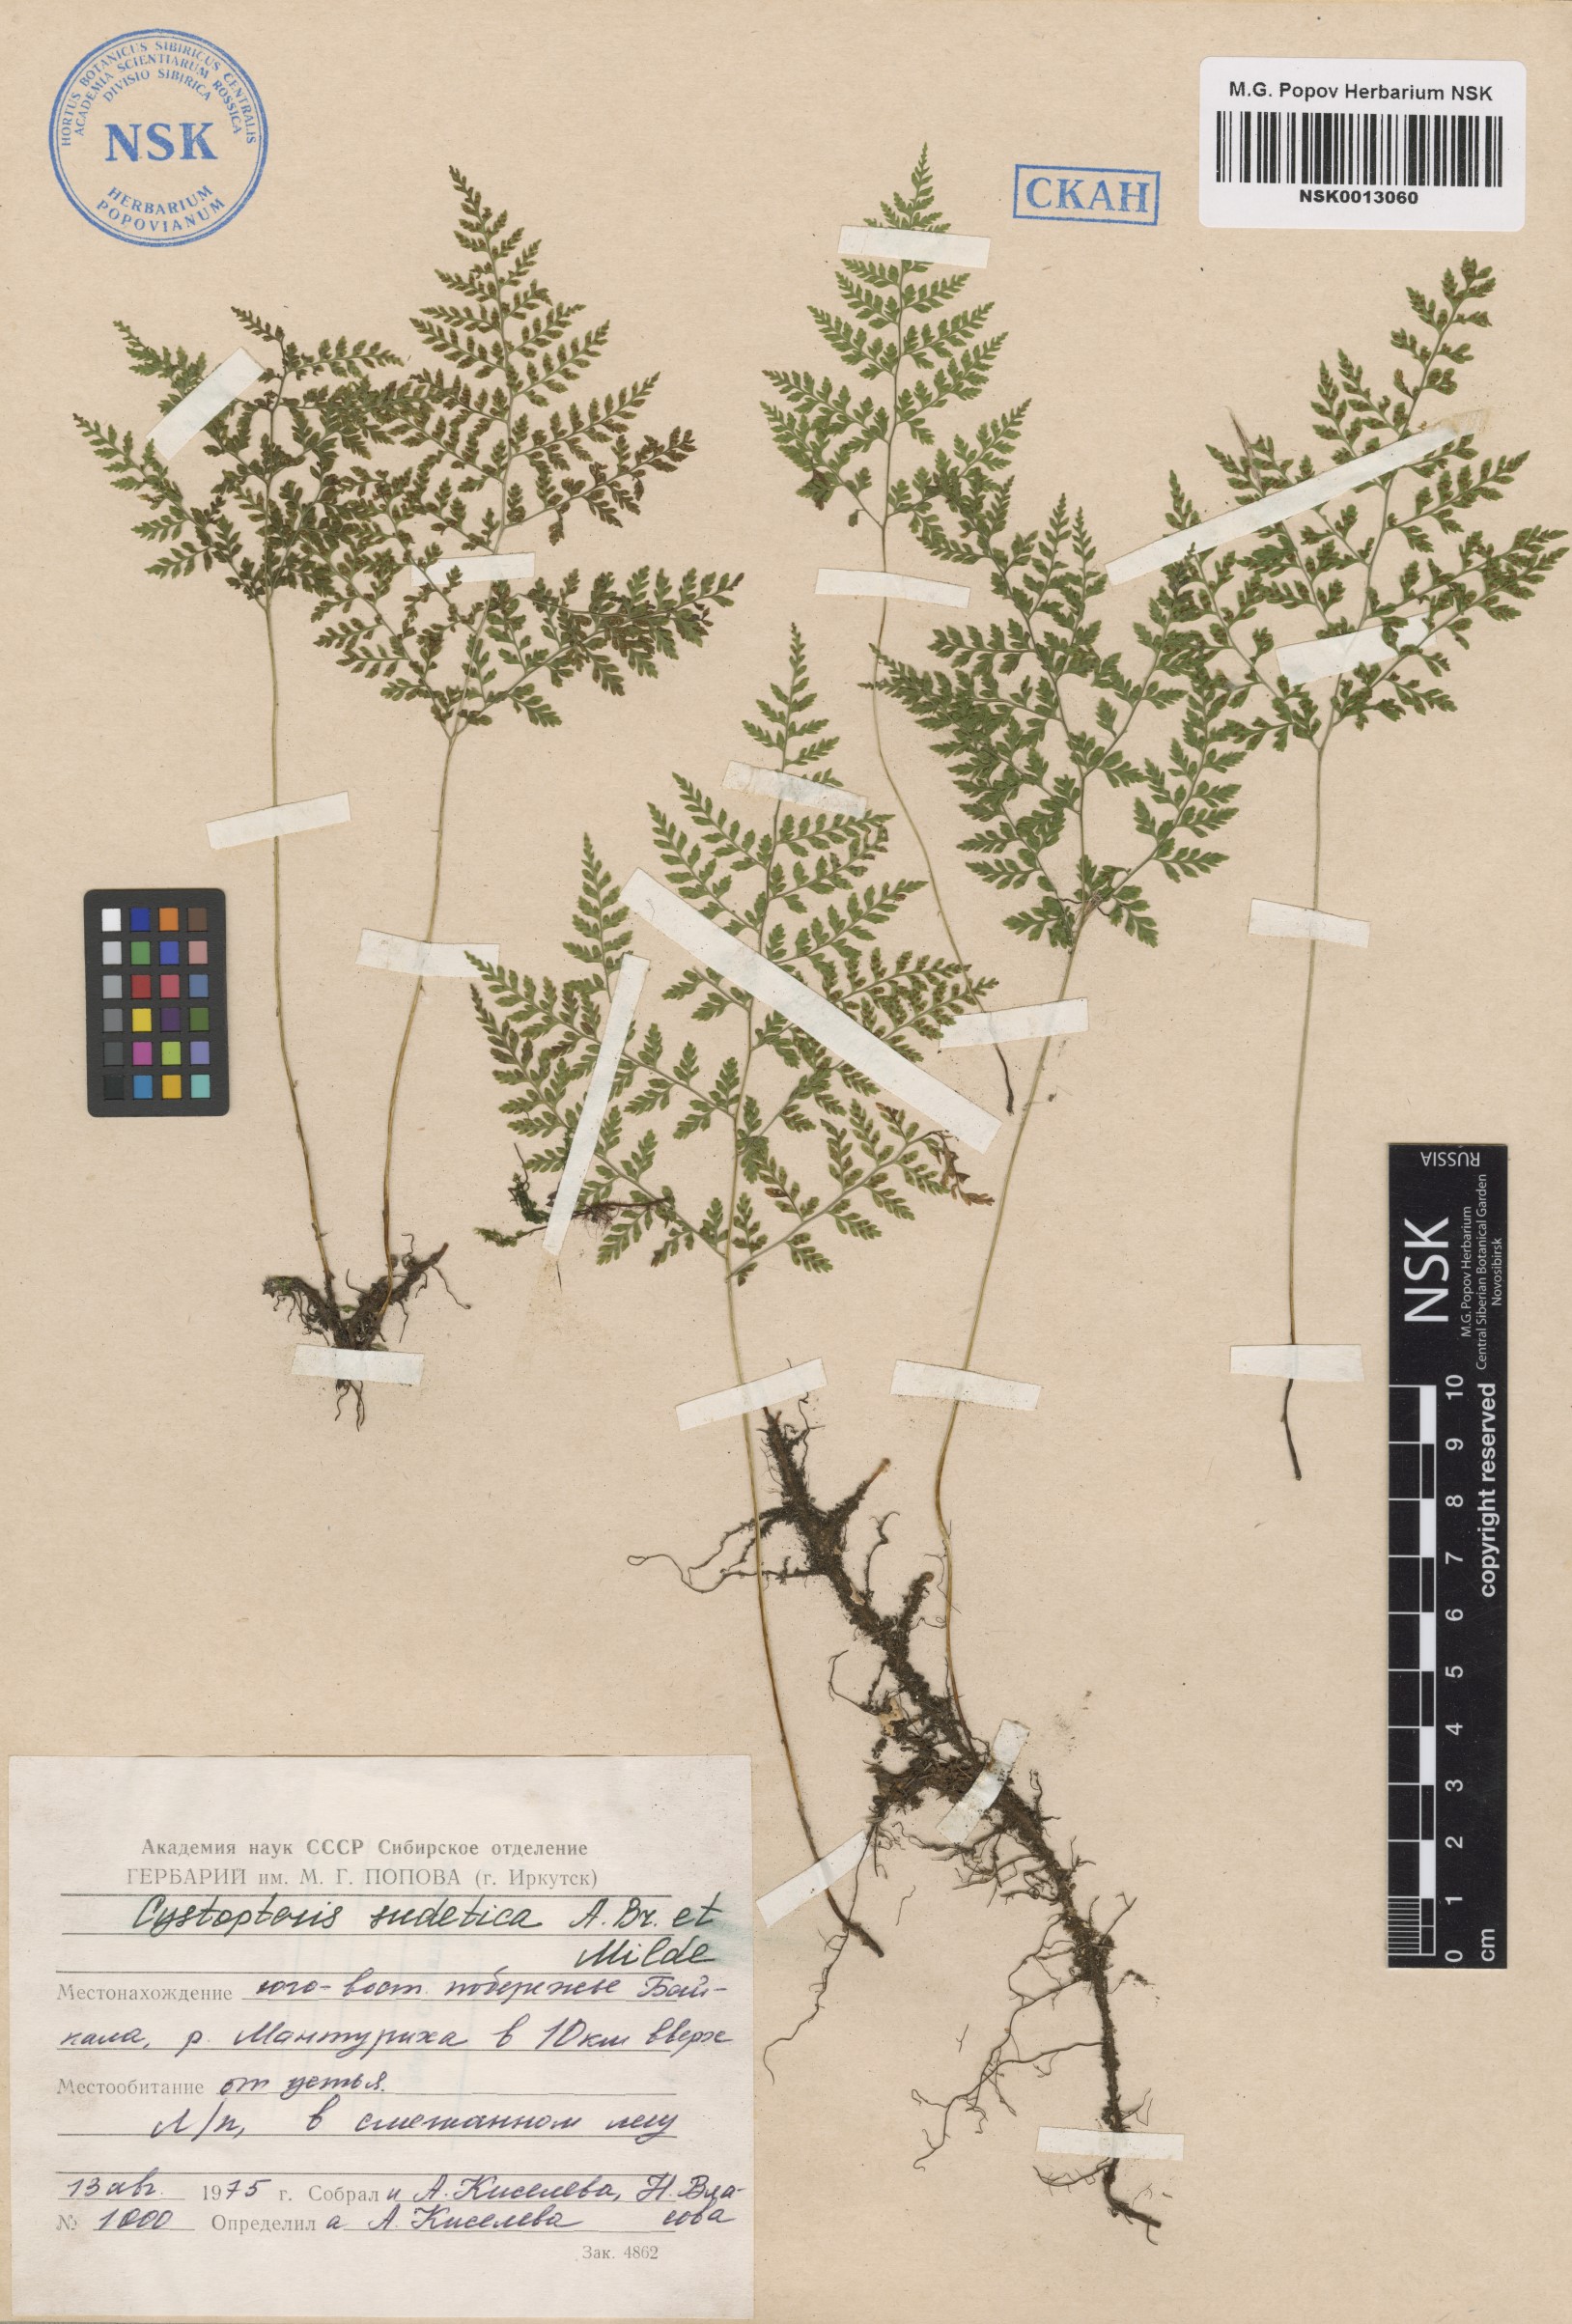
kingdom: Plantae
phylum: Tracheophyta
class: Polypodiopsida
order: Polypodiales
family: Cystopteridaceae
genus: Cystopteris
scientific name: Cystopteris sudetica
